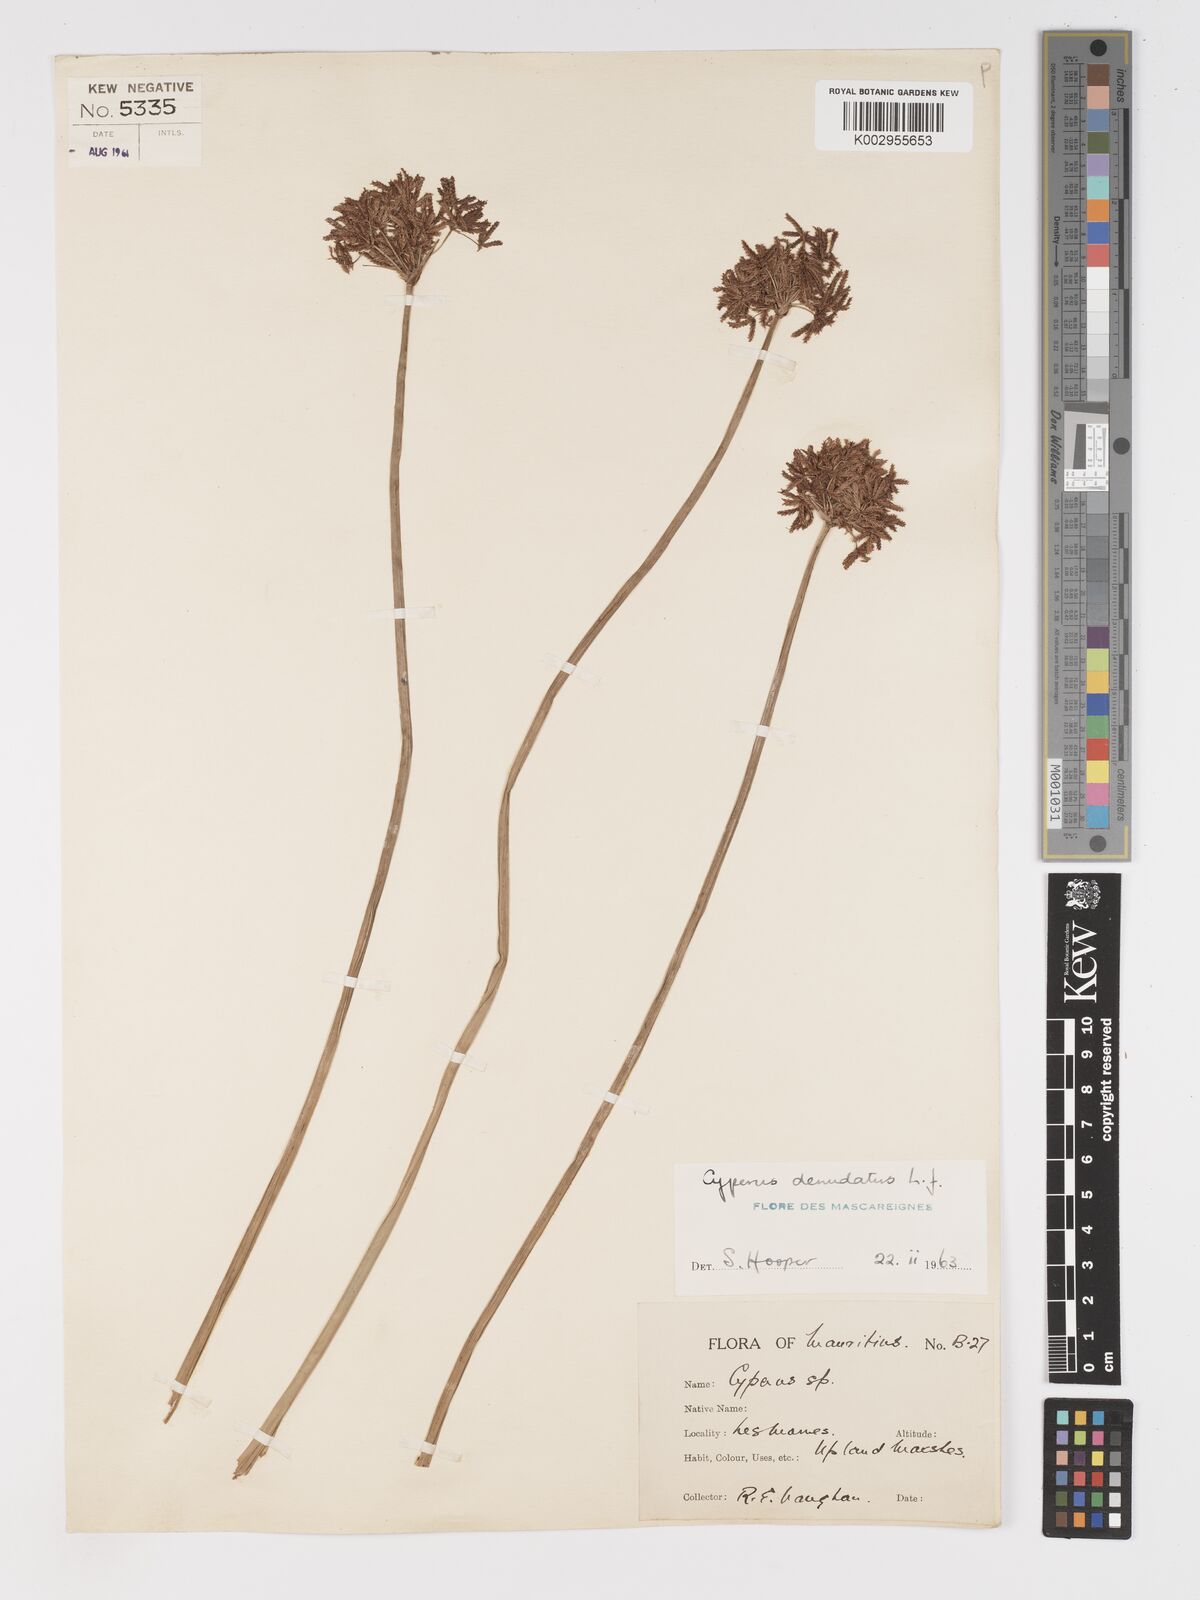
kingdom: Plantae
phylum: Tracheophyta
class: Liliopsida
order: Poales
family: Cyperaceae
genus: Cyperus
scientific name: Cyperus denudatus
